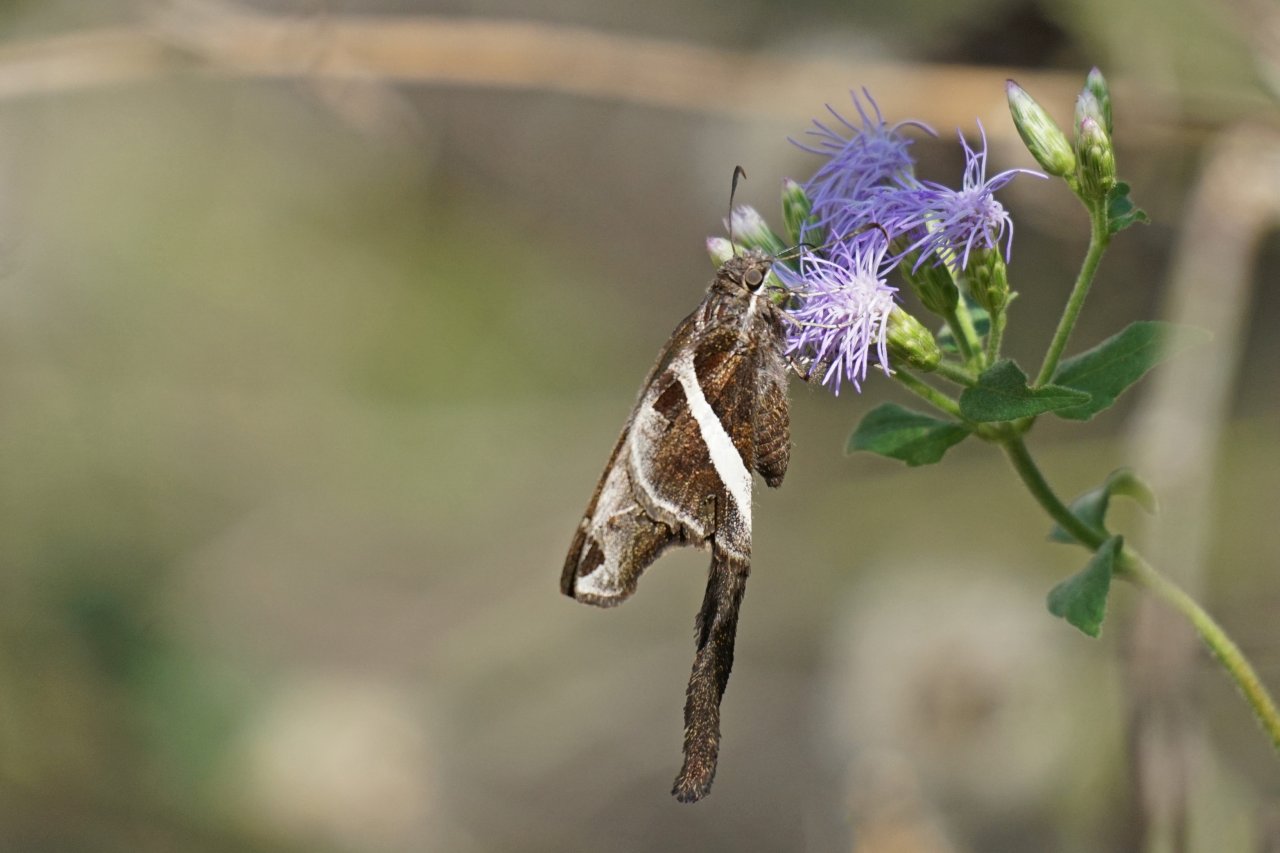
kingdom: Animalia
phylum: Arthropoda
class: Insecta
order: Lepidoptera
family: Hesperiidae
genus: Chioides
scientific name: Chioides catillus
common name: White-striped Longtail
